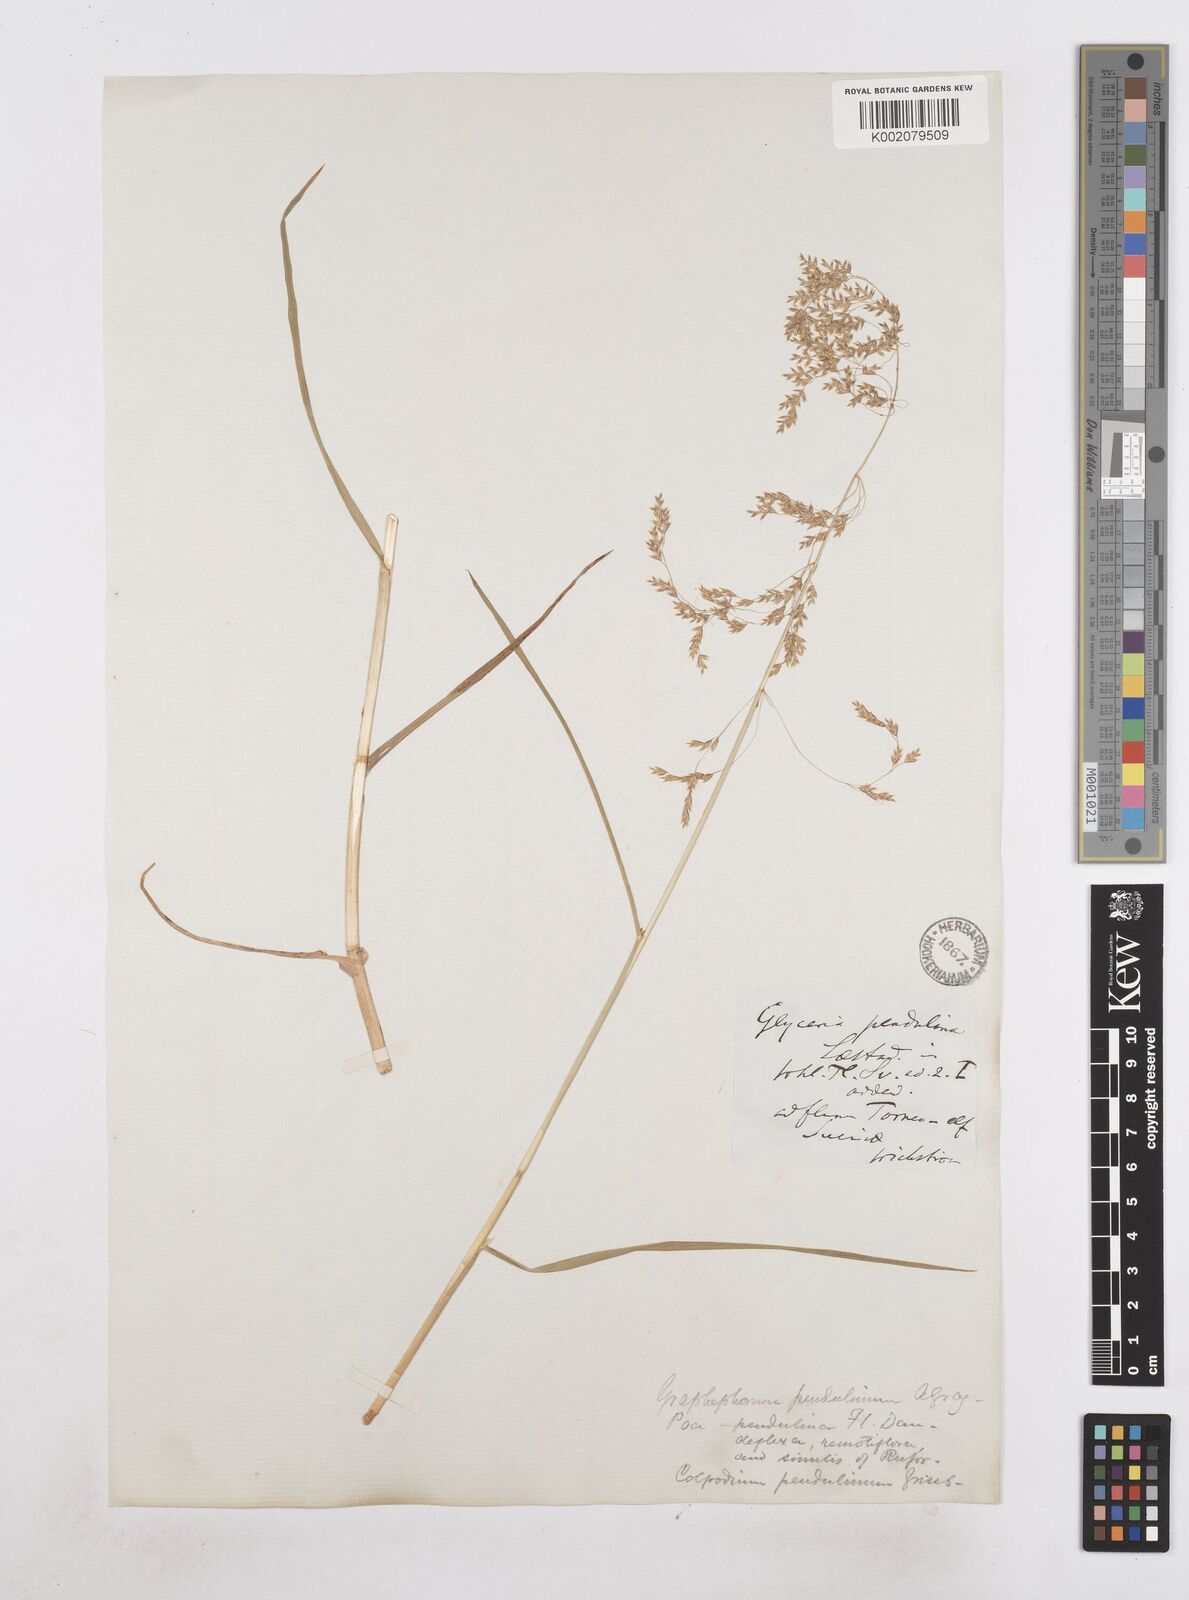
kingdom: Plantae
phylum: Tracheophyta
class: Liliopsida
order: Poales
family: Poaceae
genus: Dupontia
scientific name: Dupontia fulva
